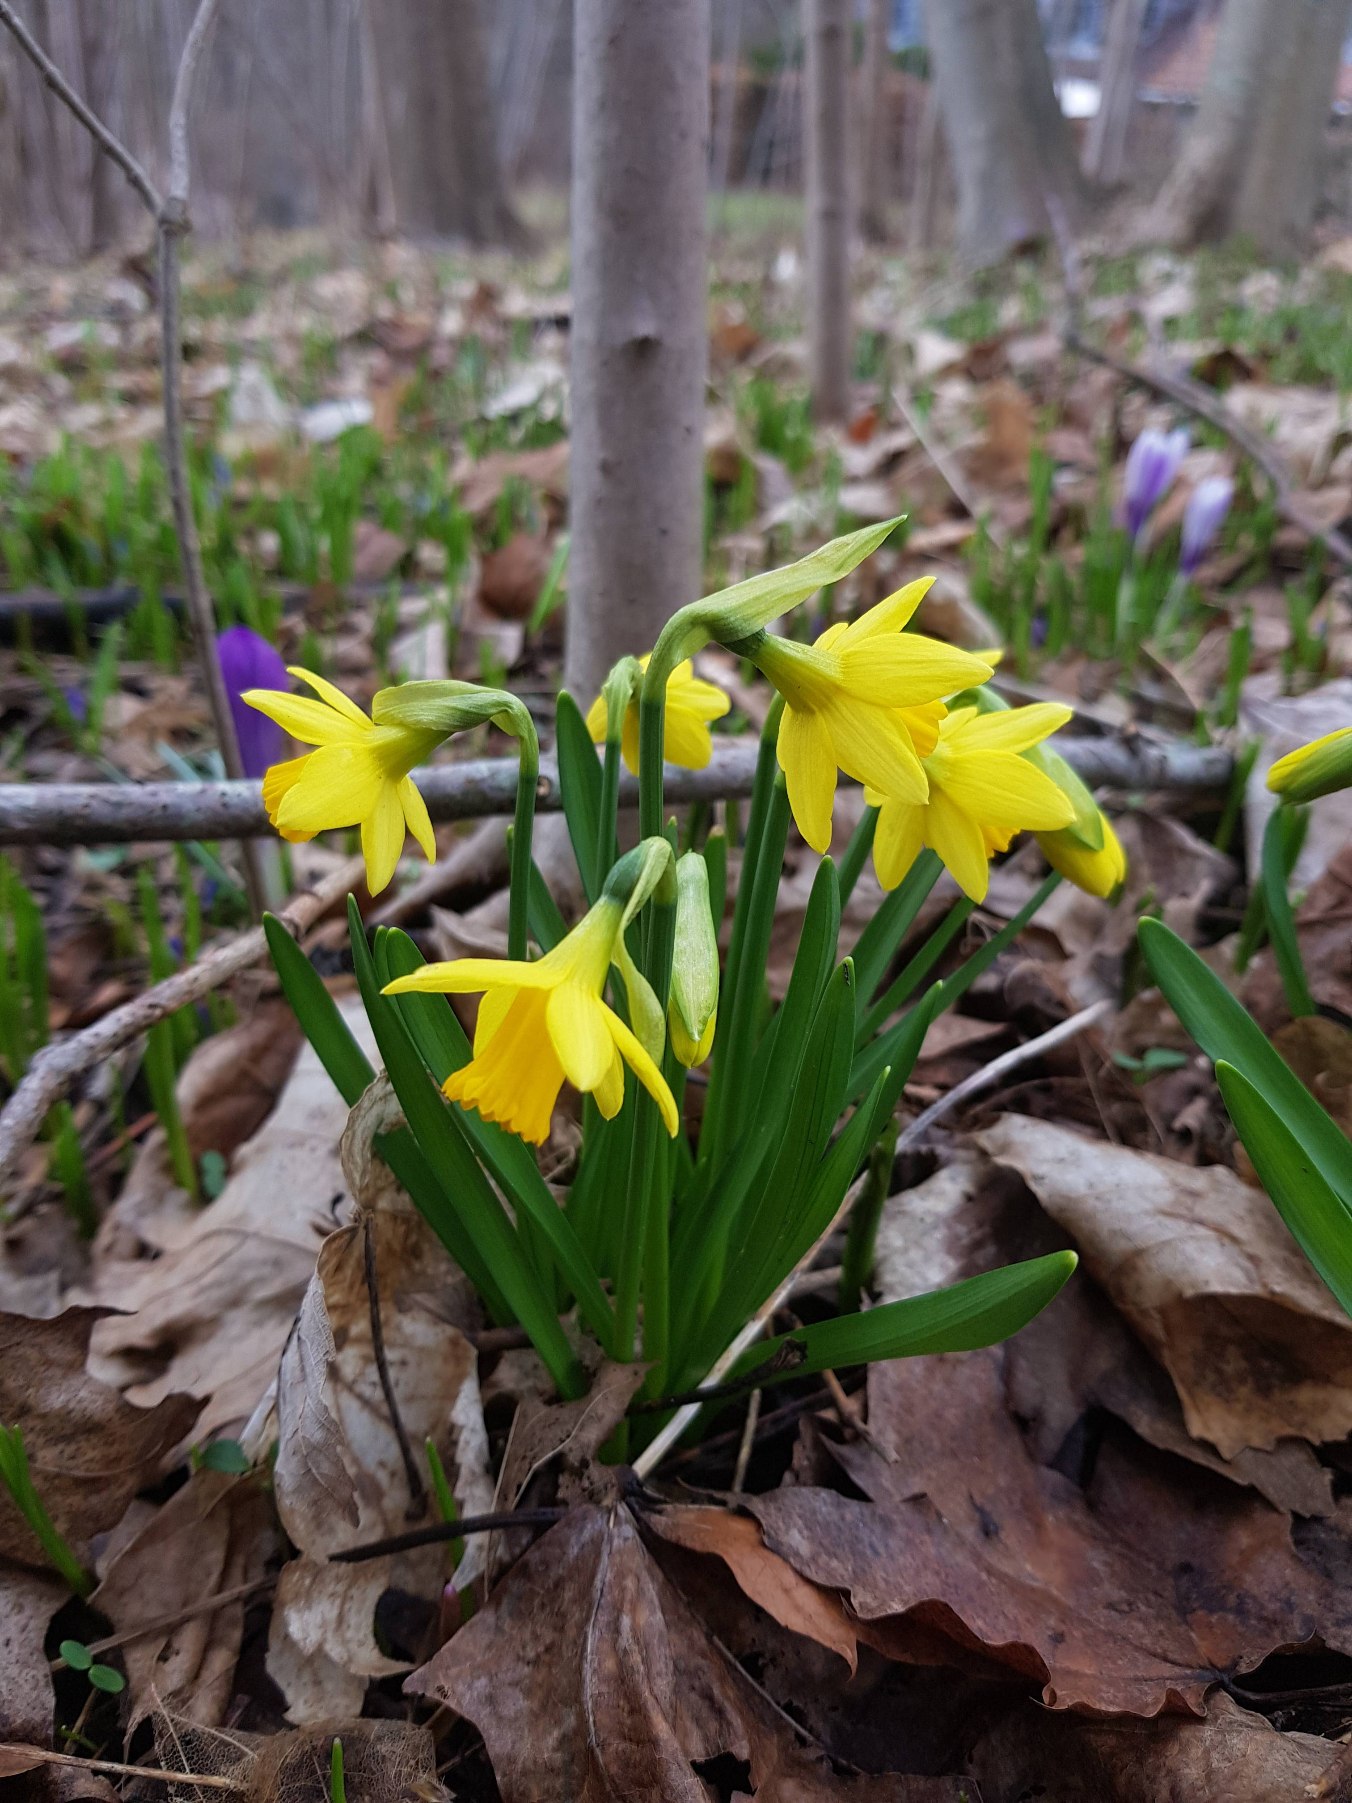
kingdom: Plantae
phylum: Tracheophyta
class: Liliopsida
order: Asparagales
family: Amaryllidaceae
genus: Narcissus
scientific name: Narcissus cyclazetta
